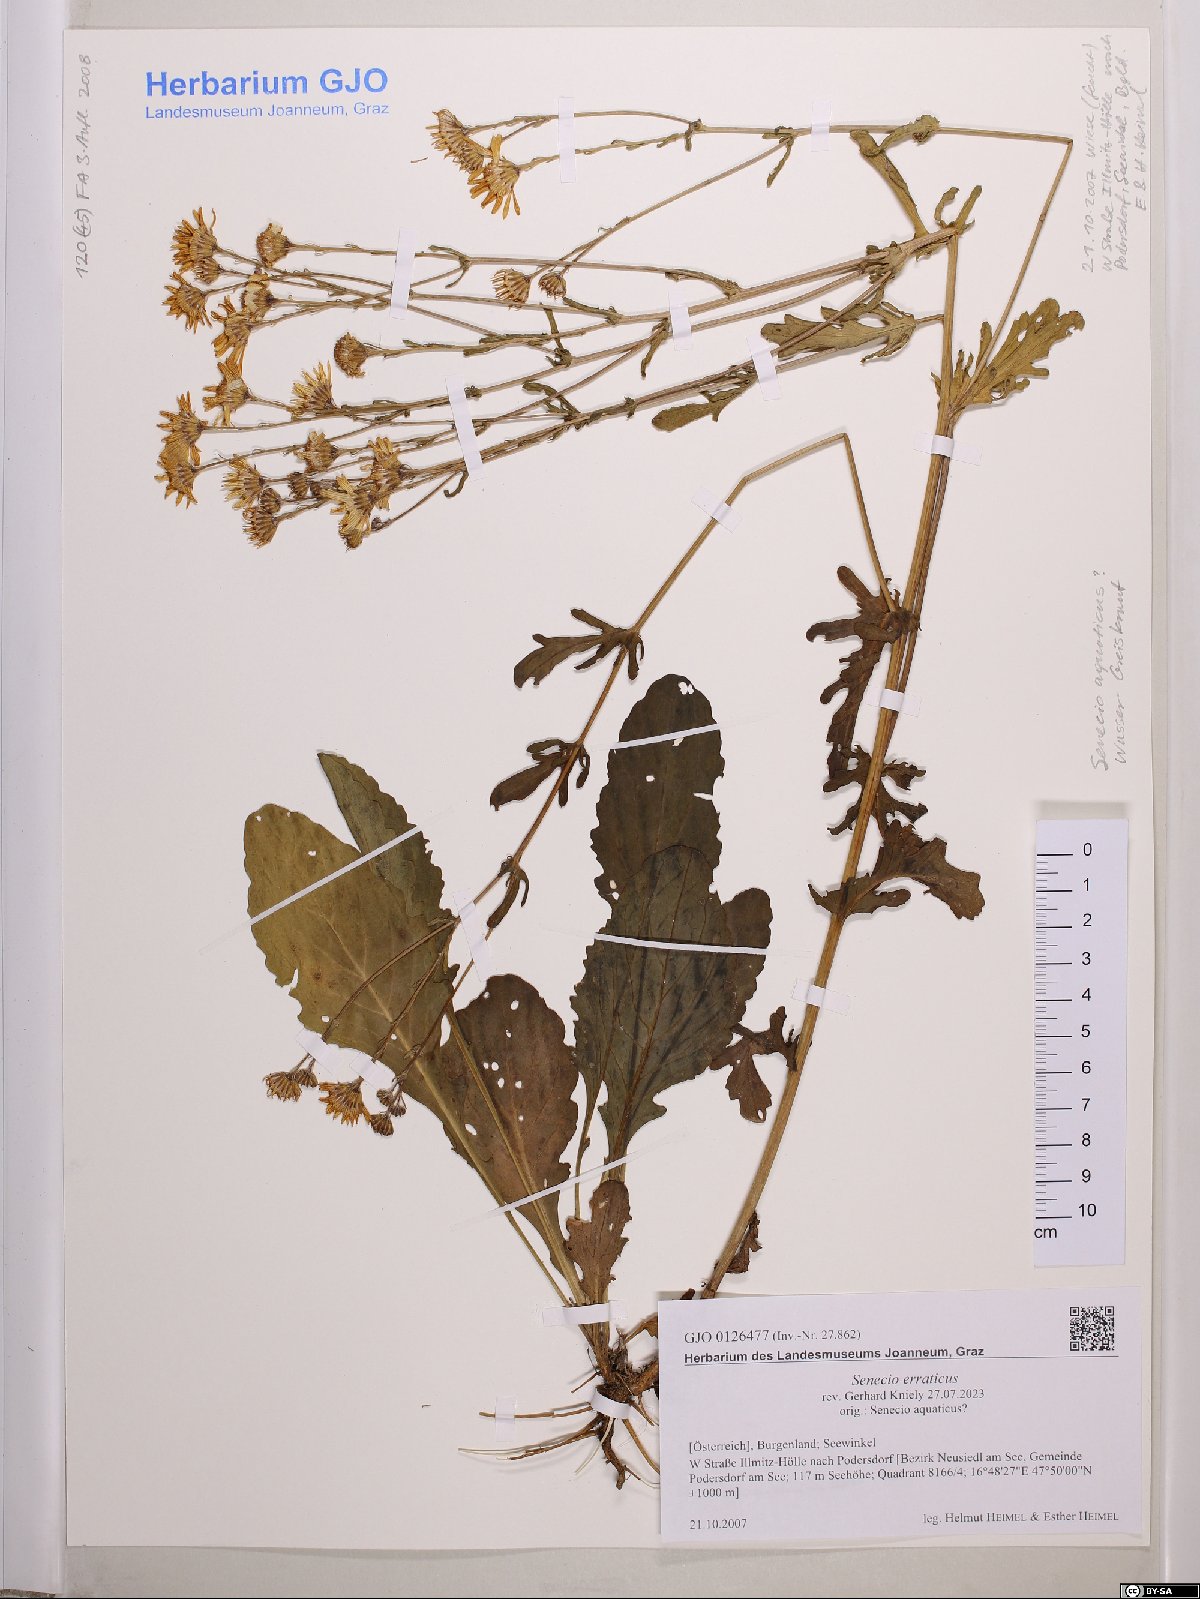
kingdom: Plantae
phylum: Tracheophyta
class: Magnoliopsida
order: Asterales
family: Asteraceae
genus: Jacobaea
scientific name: Jacobaea erratica
